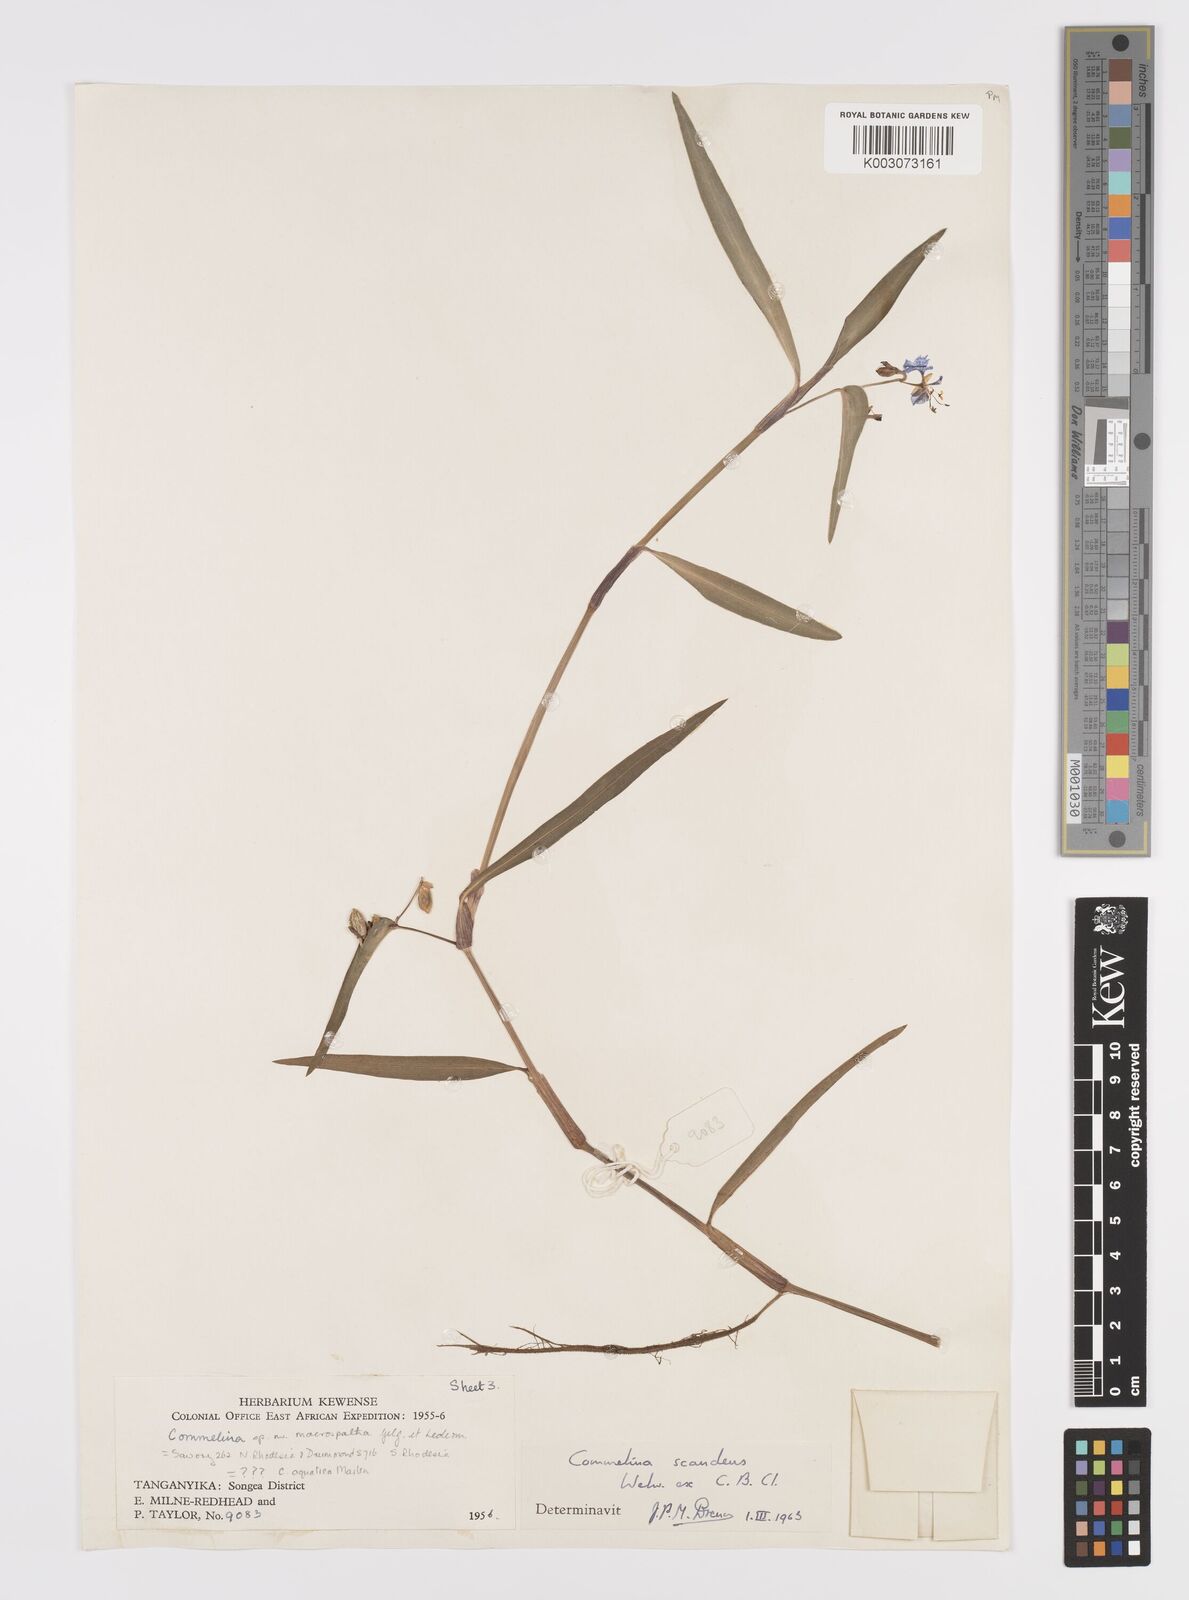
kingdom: Plantae
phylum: Tracheophyta
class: Liliopsida
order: Commelinales
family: Commelinaceae
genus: Commelina
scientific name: Commelina scandens
